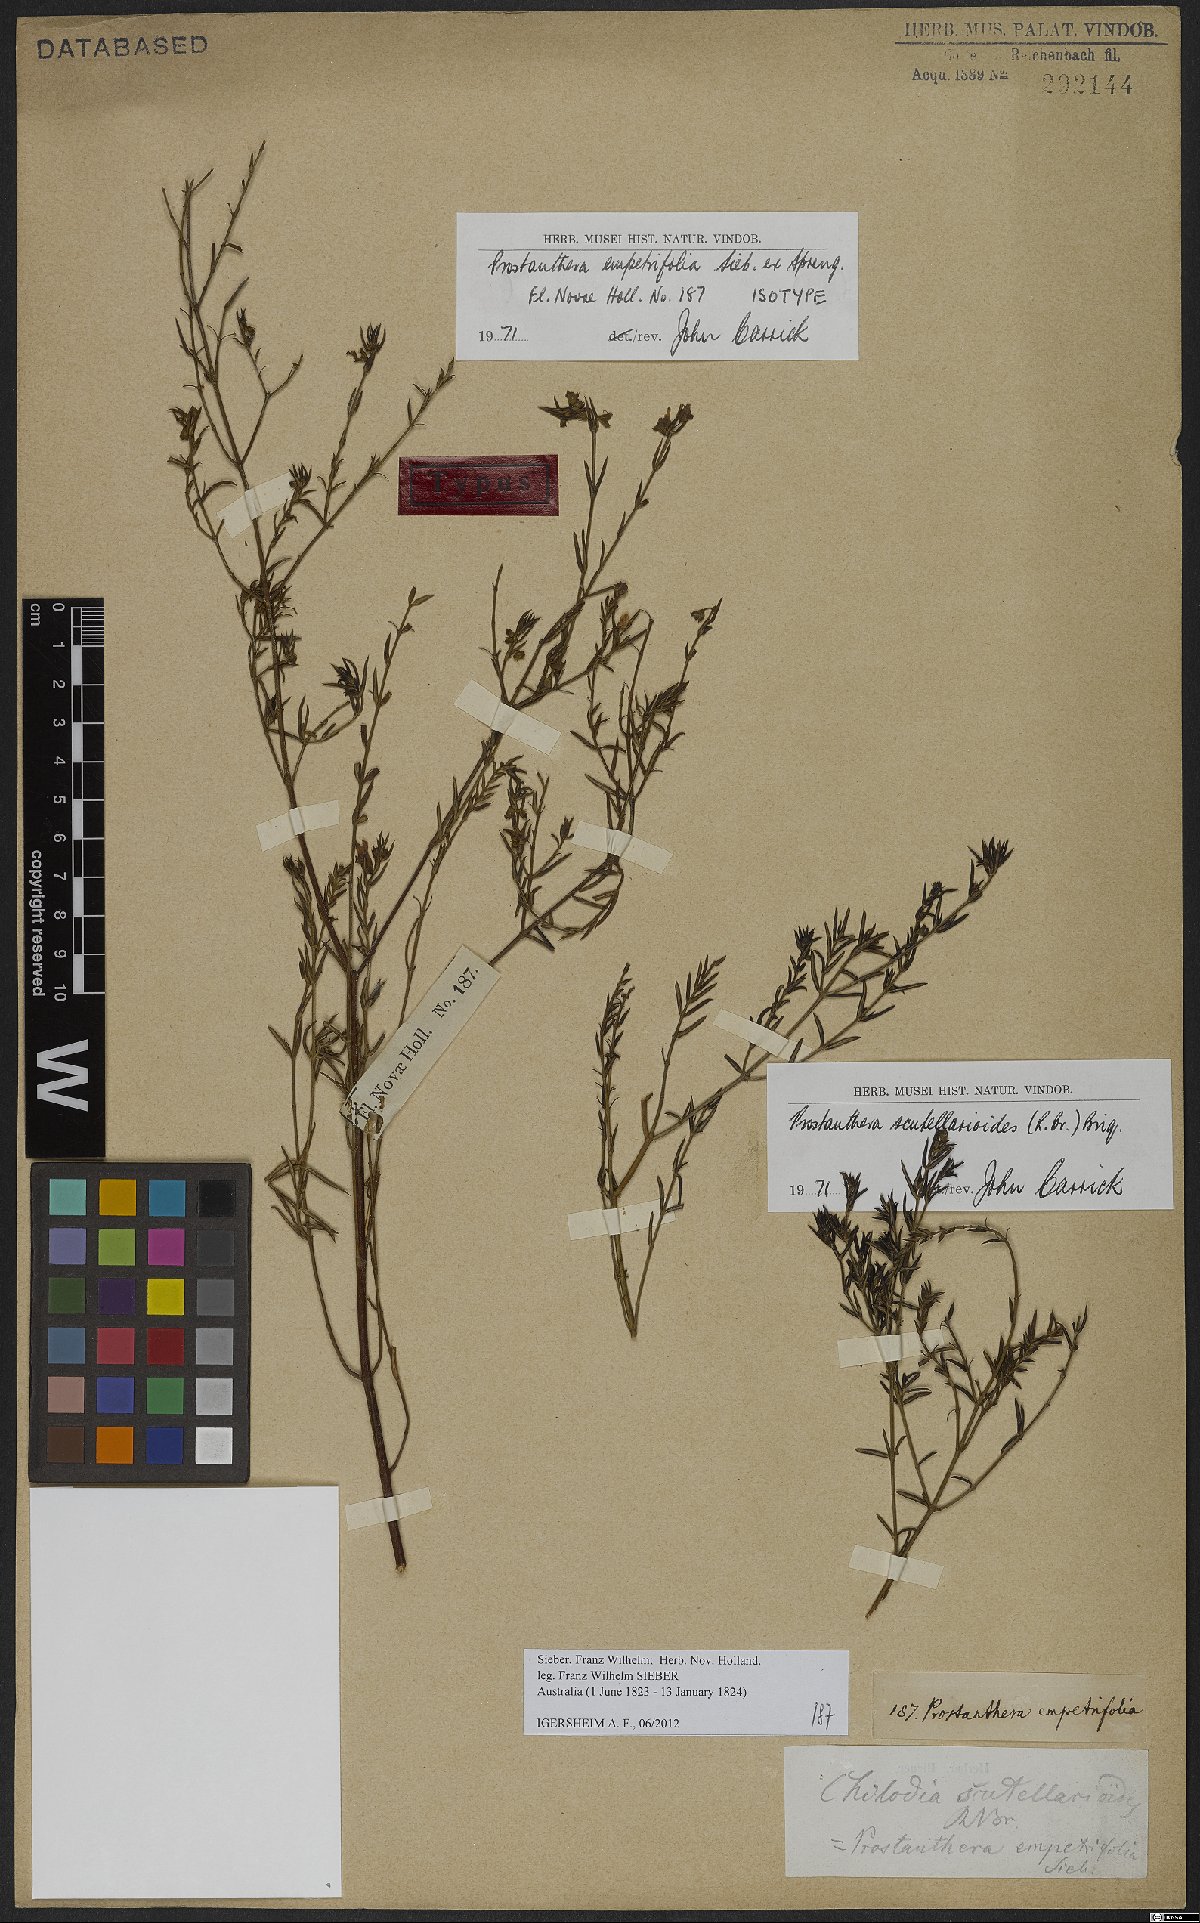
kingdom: Plantae
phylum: Tracheophyta
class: Magnoliopsida
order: Lamiales
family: Lamiaceae
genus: Prostanthera
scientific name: Prostanthera scutellarioides
